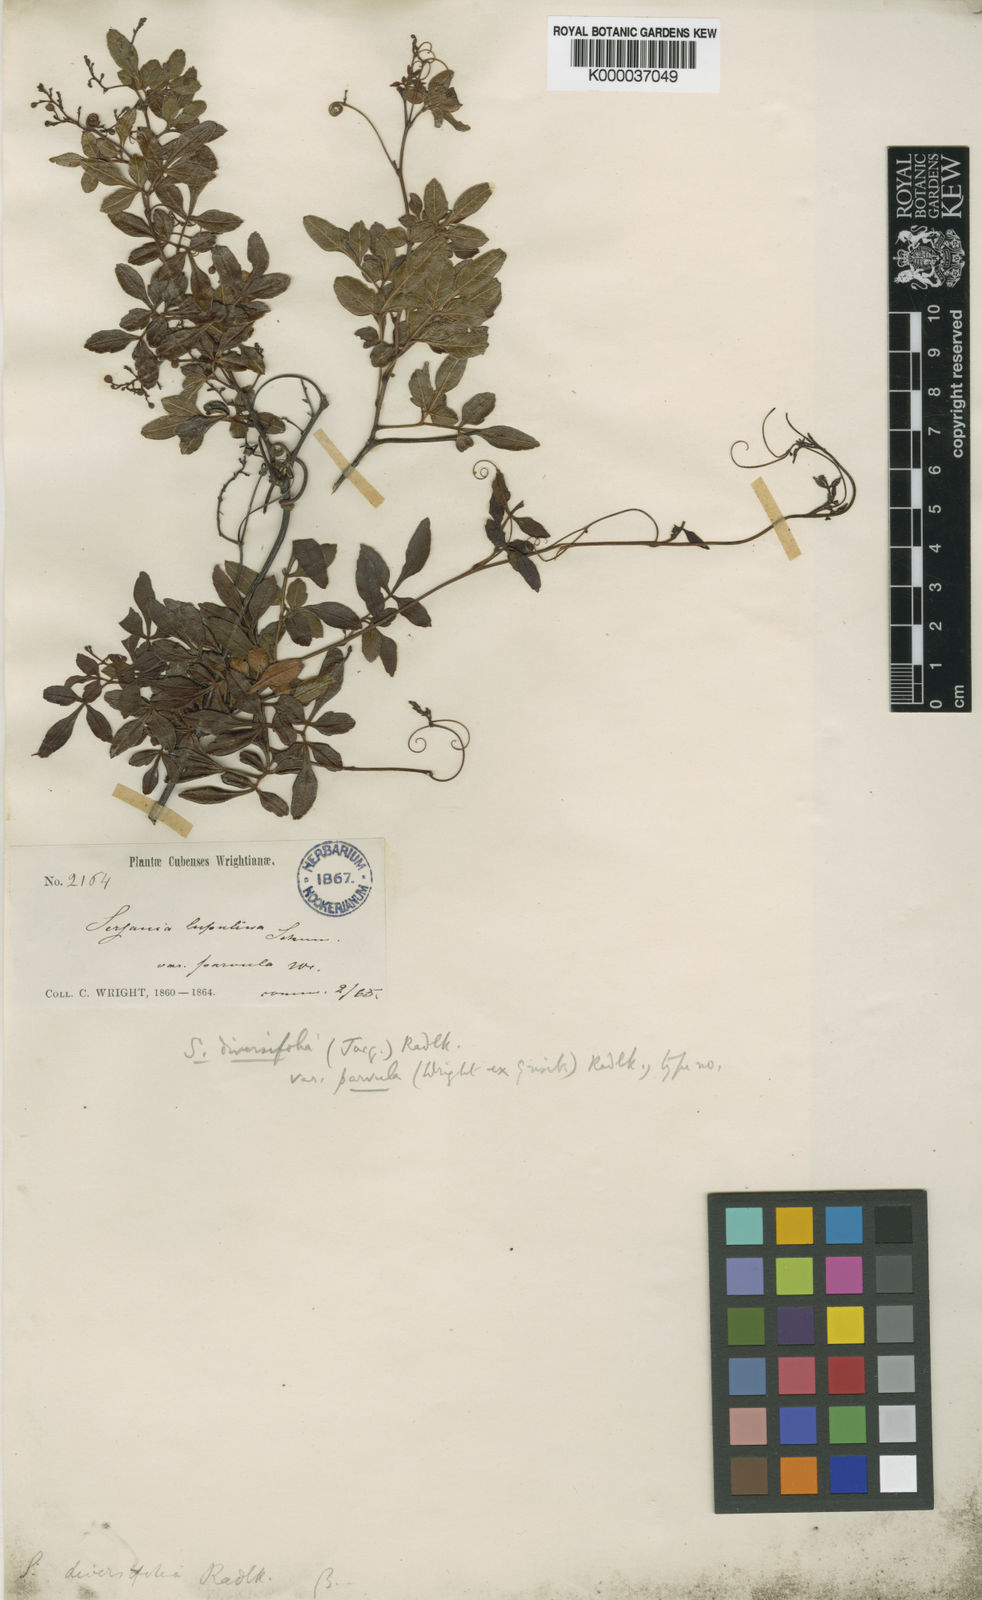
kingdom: Plantae
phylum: Tracheophyta
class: Magnoliopsida
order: Sapindales
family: Sapindaceae
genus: Serjania
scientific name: Serjania diversifolia
